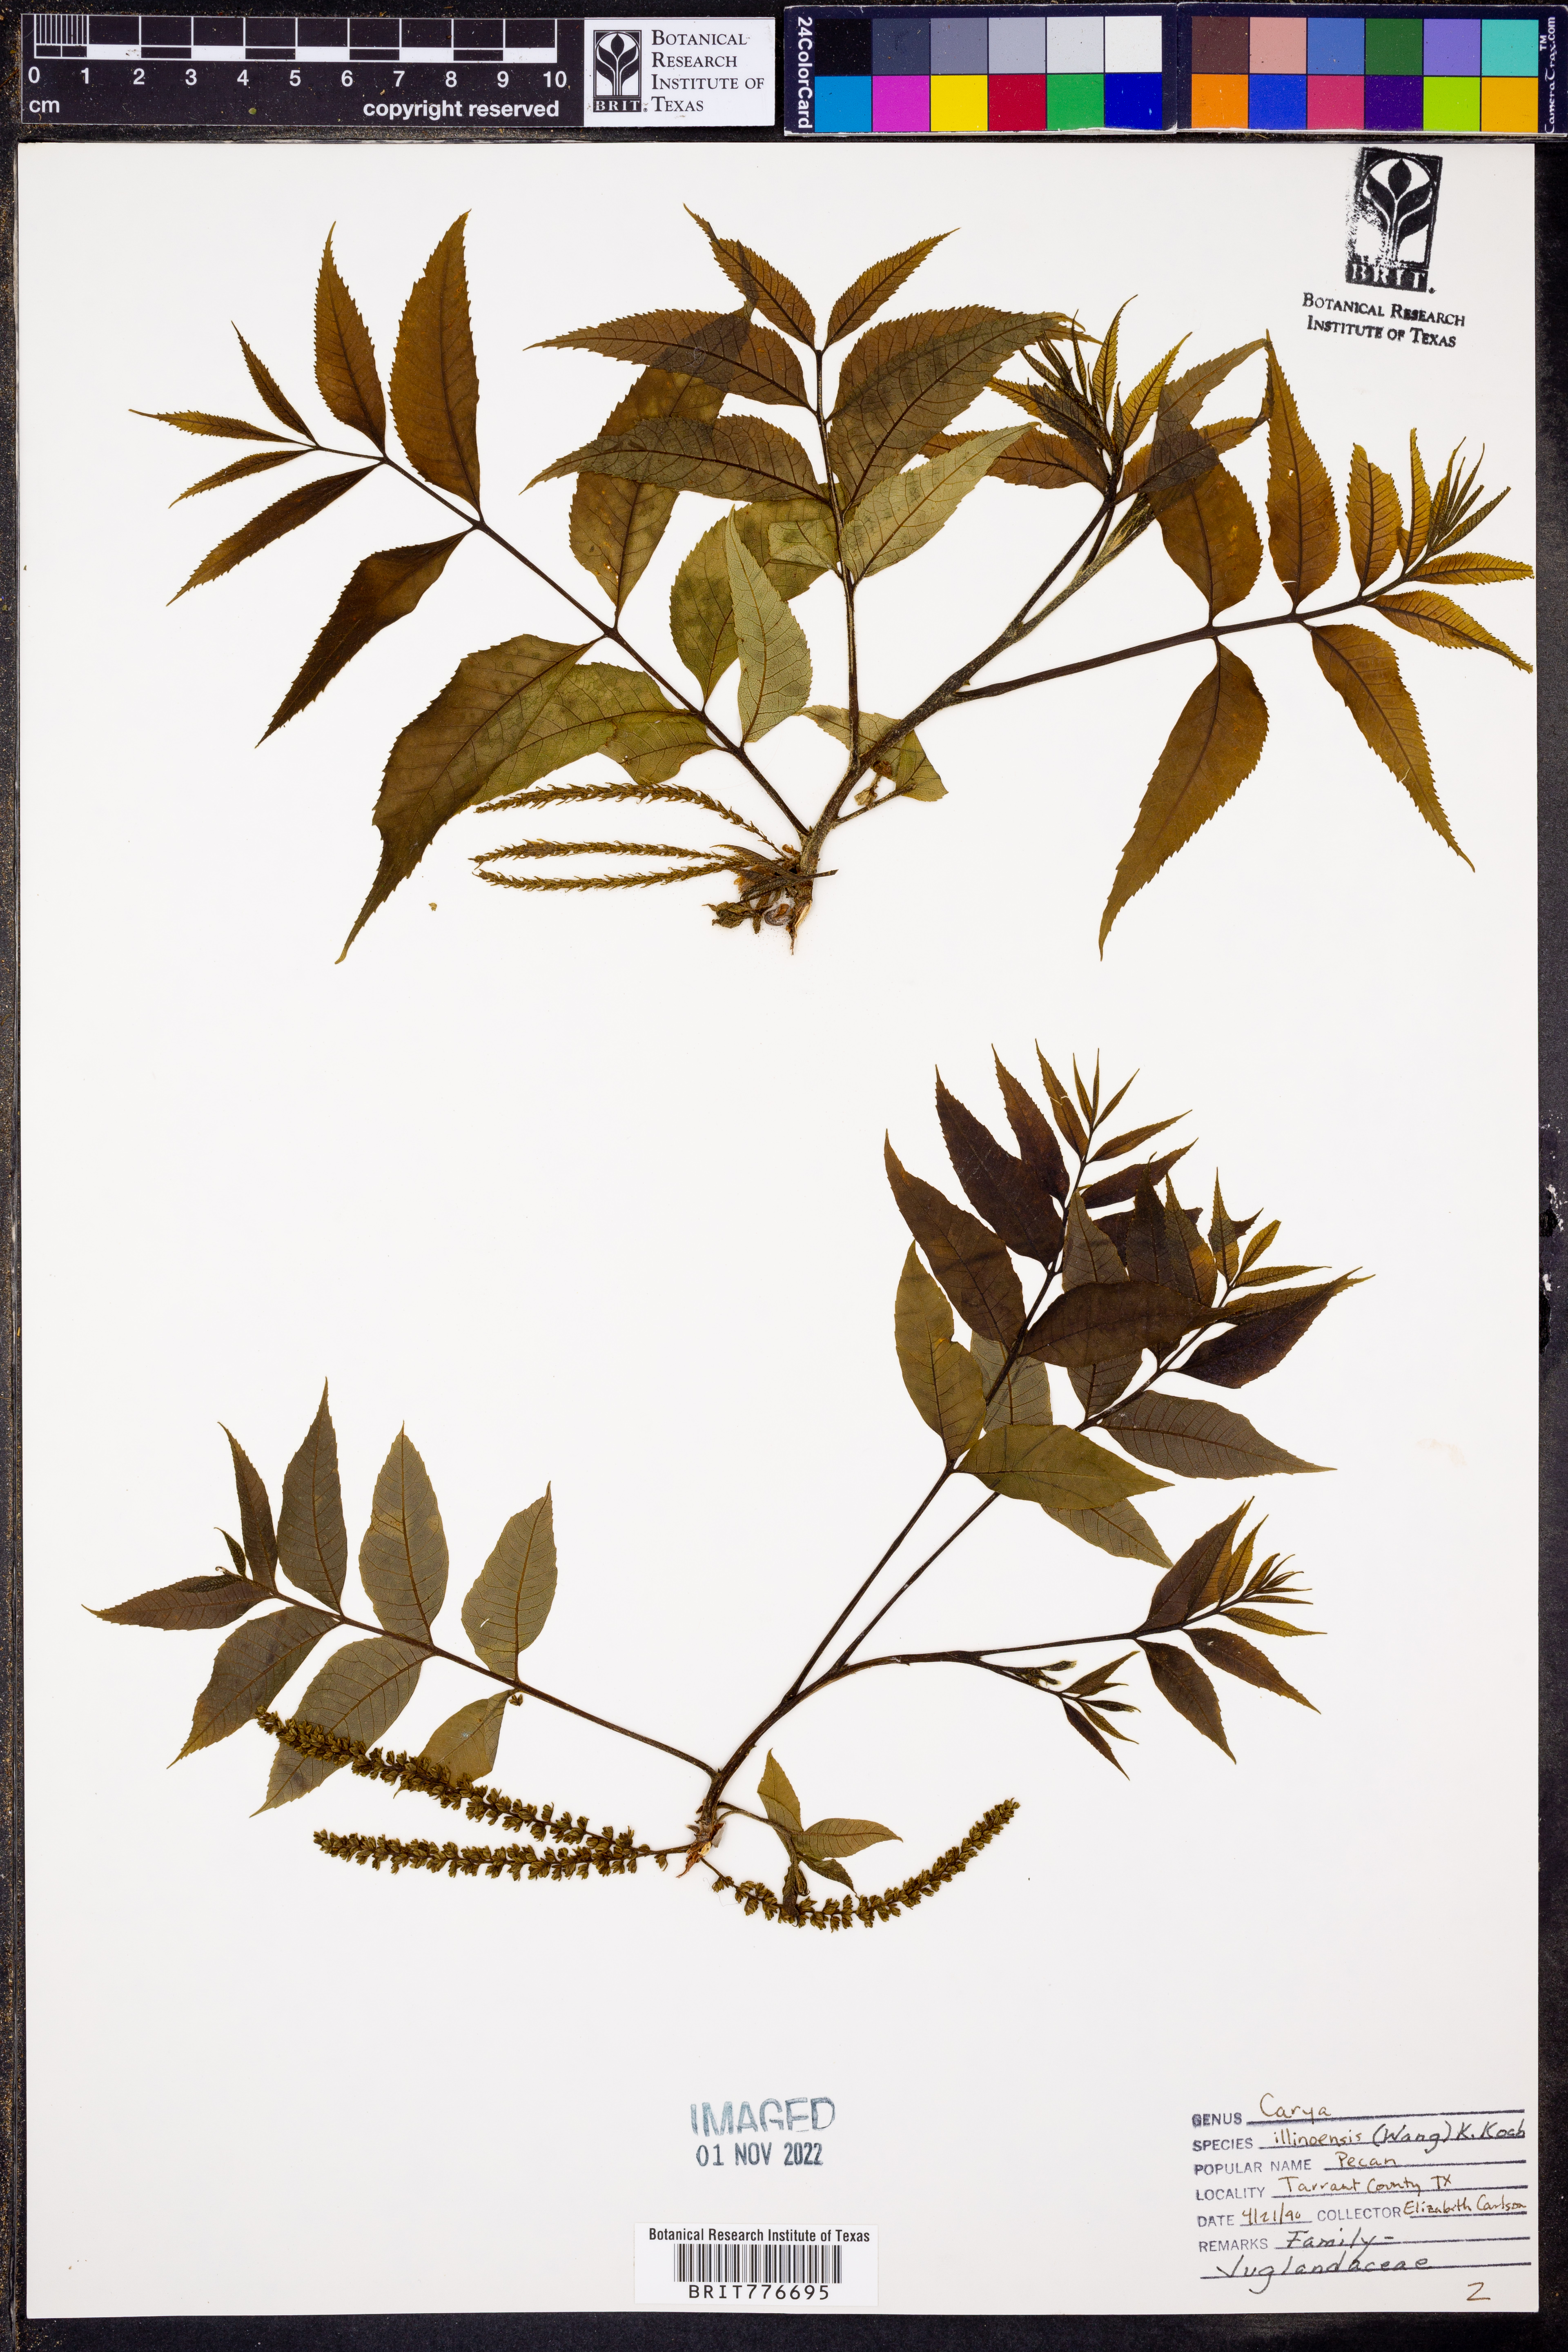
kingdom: Plantae
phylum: Tracheophyta
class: Magnoliopsida
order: Fagales
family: Juglandaceae
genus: Carya
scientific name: Carya illinoinensis
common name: Pecan
